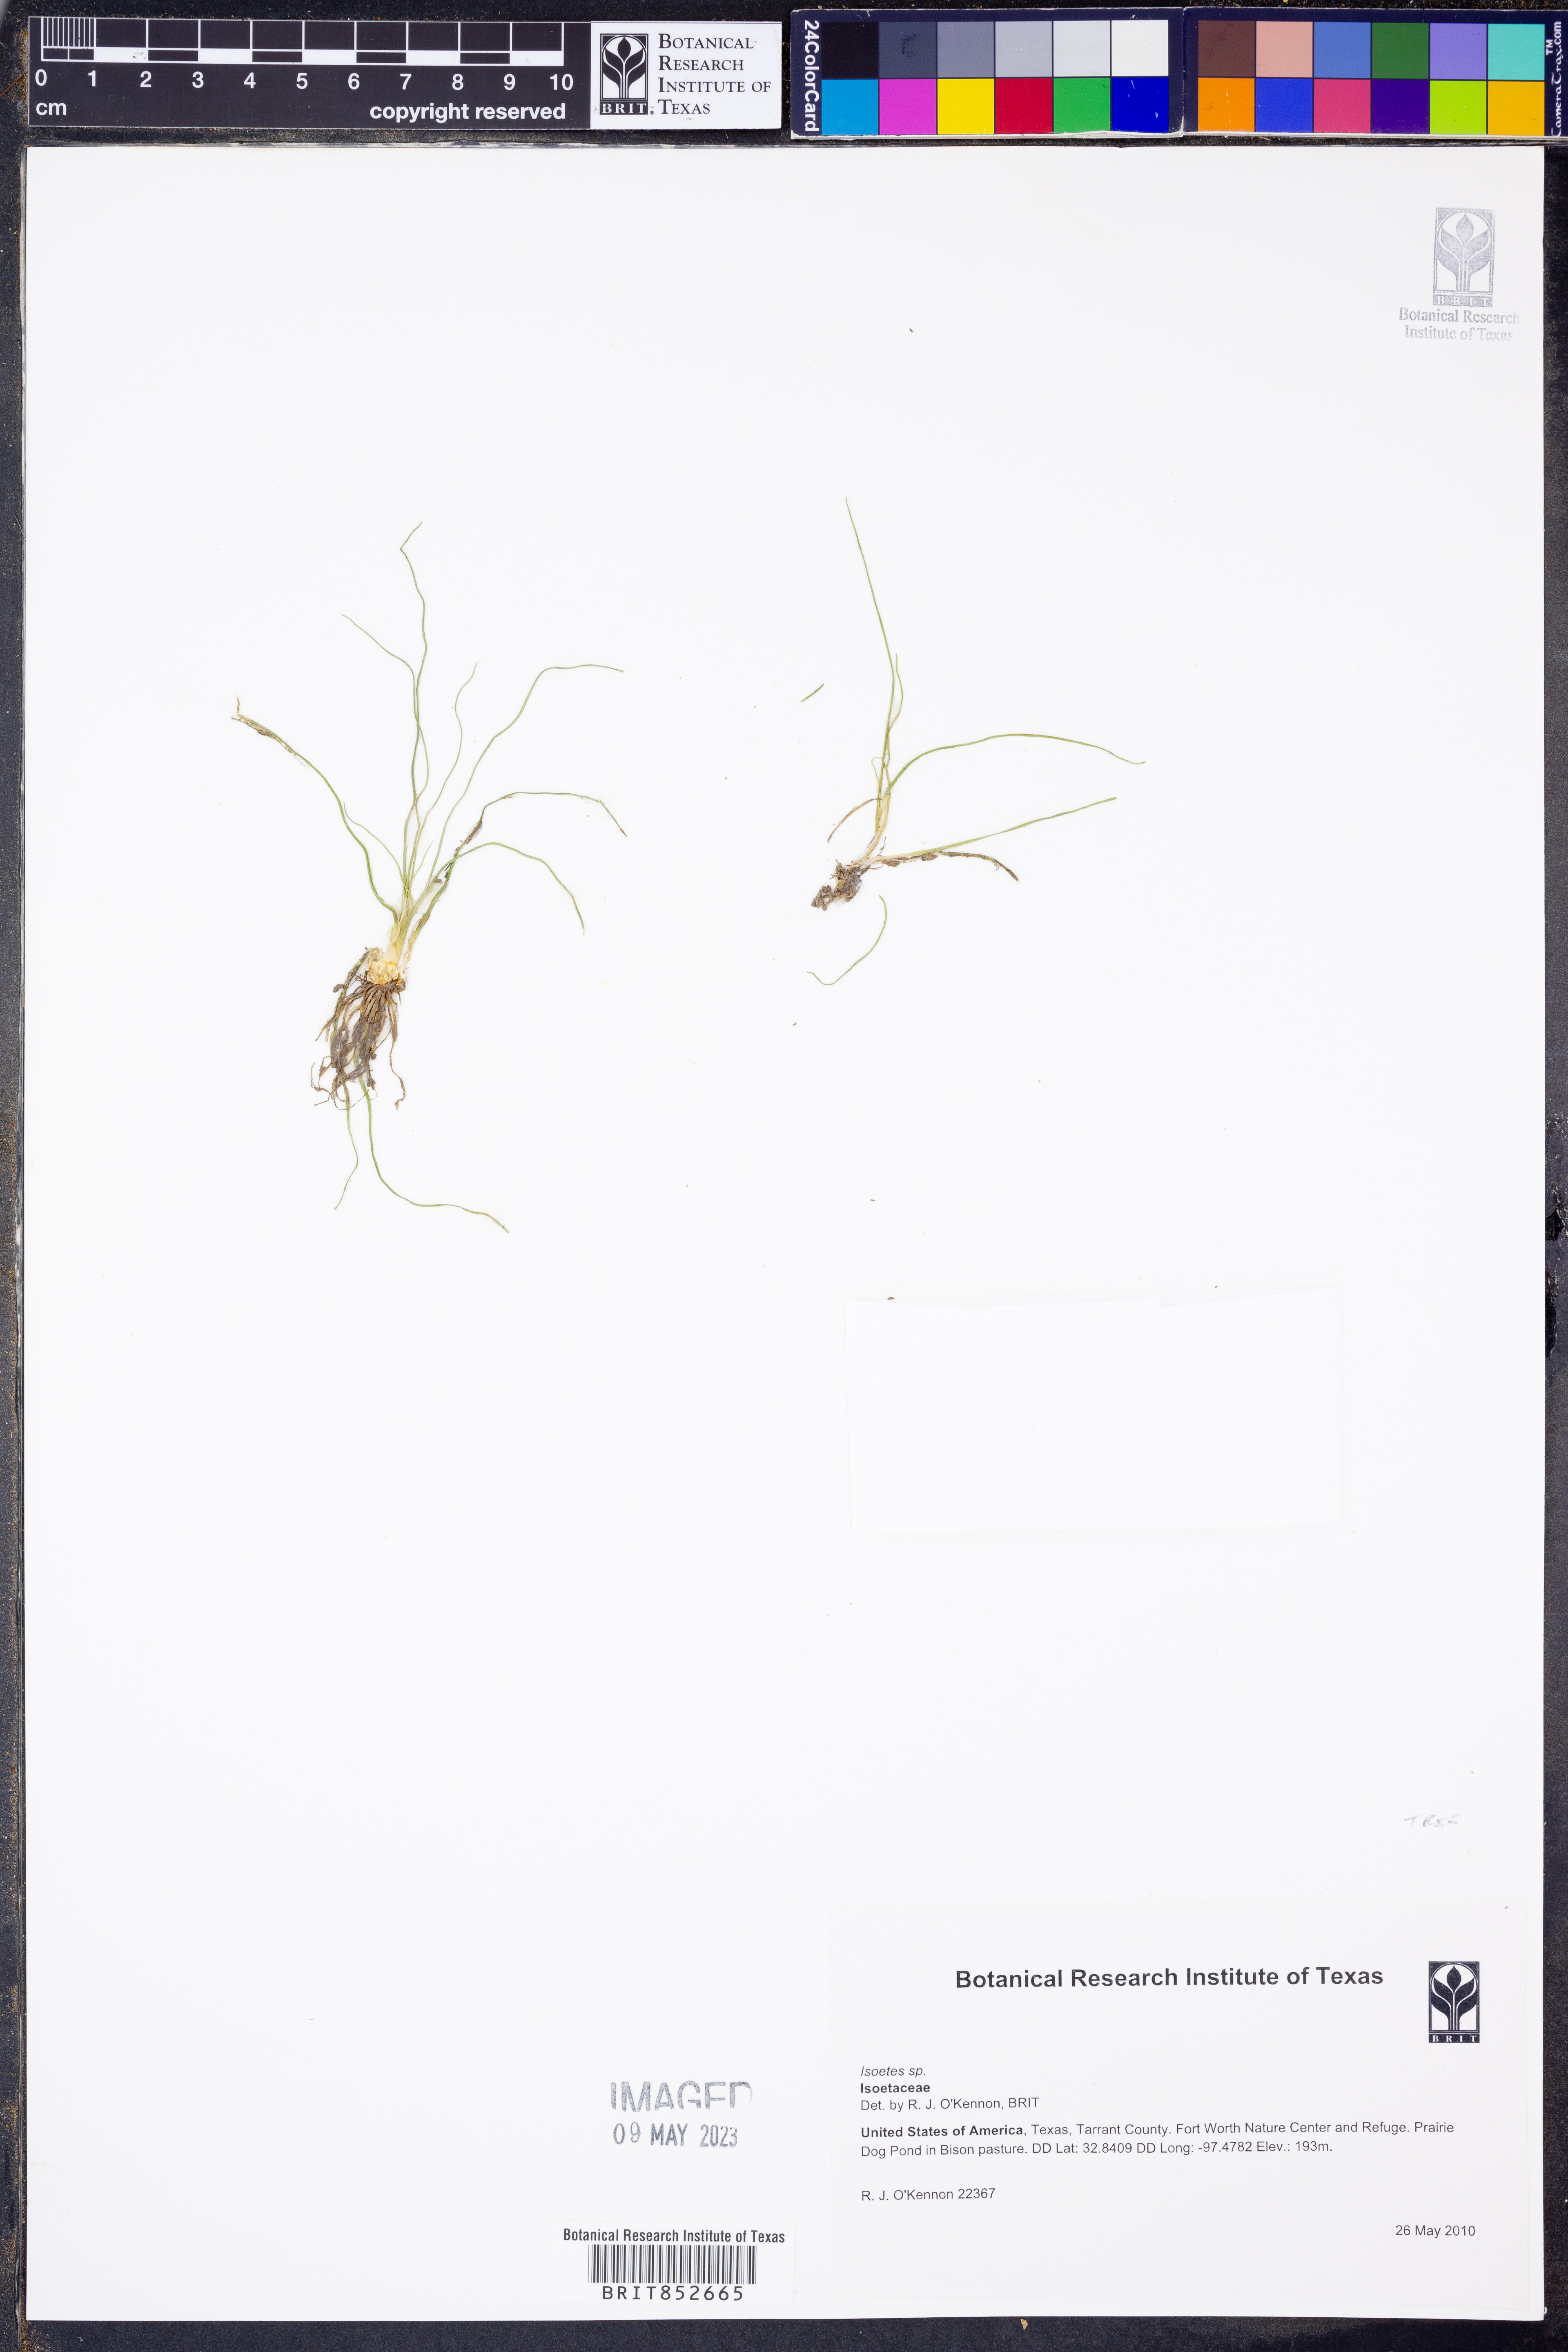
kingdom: Plantae
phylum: Tracheophyta
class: Lycopodiopsida
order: Isoetales
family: Isoetaceae
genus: Isoetes
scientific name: Isoetes
